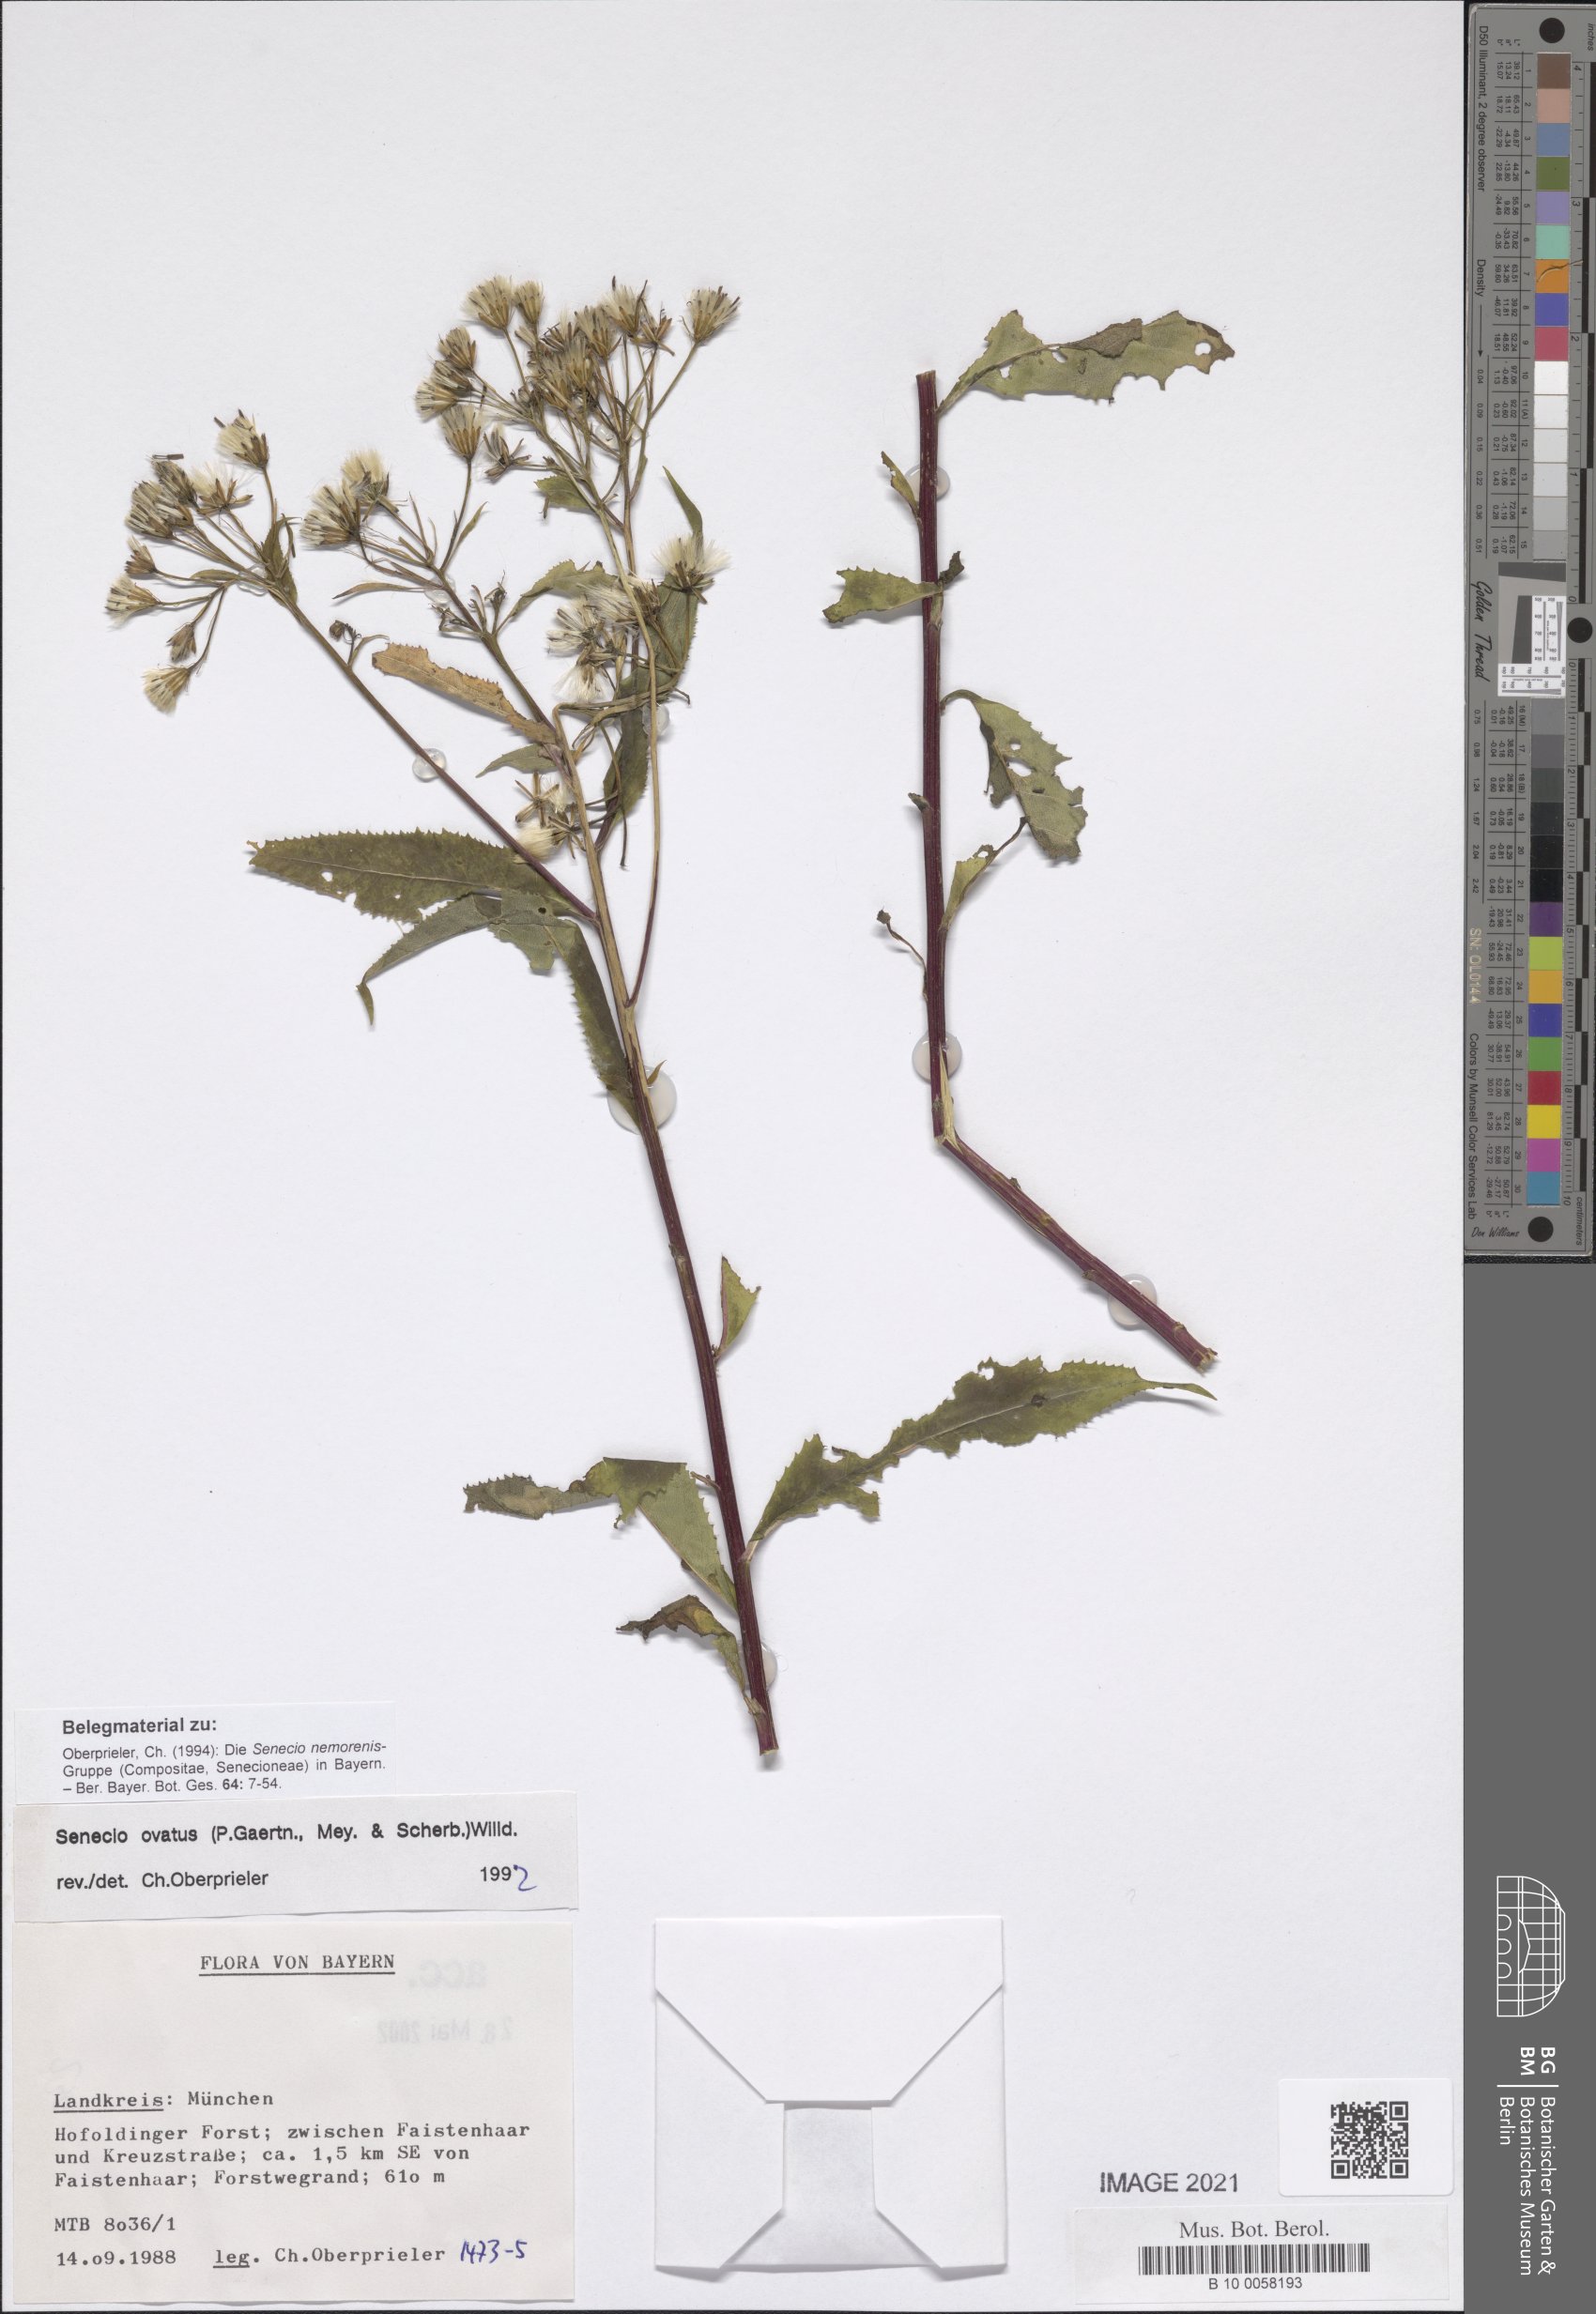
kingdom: Plantae
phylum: Tracheophyta
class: Magnoliopsida
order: Asterales
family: Asteraceae
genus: Senecio
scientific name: Senecio ovatus
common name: Wood ragwort
